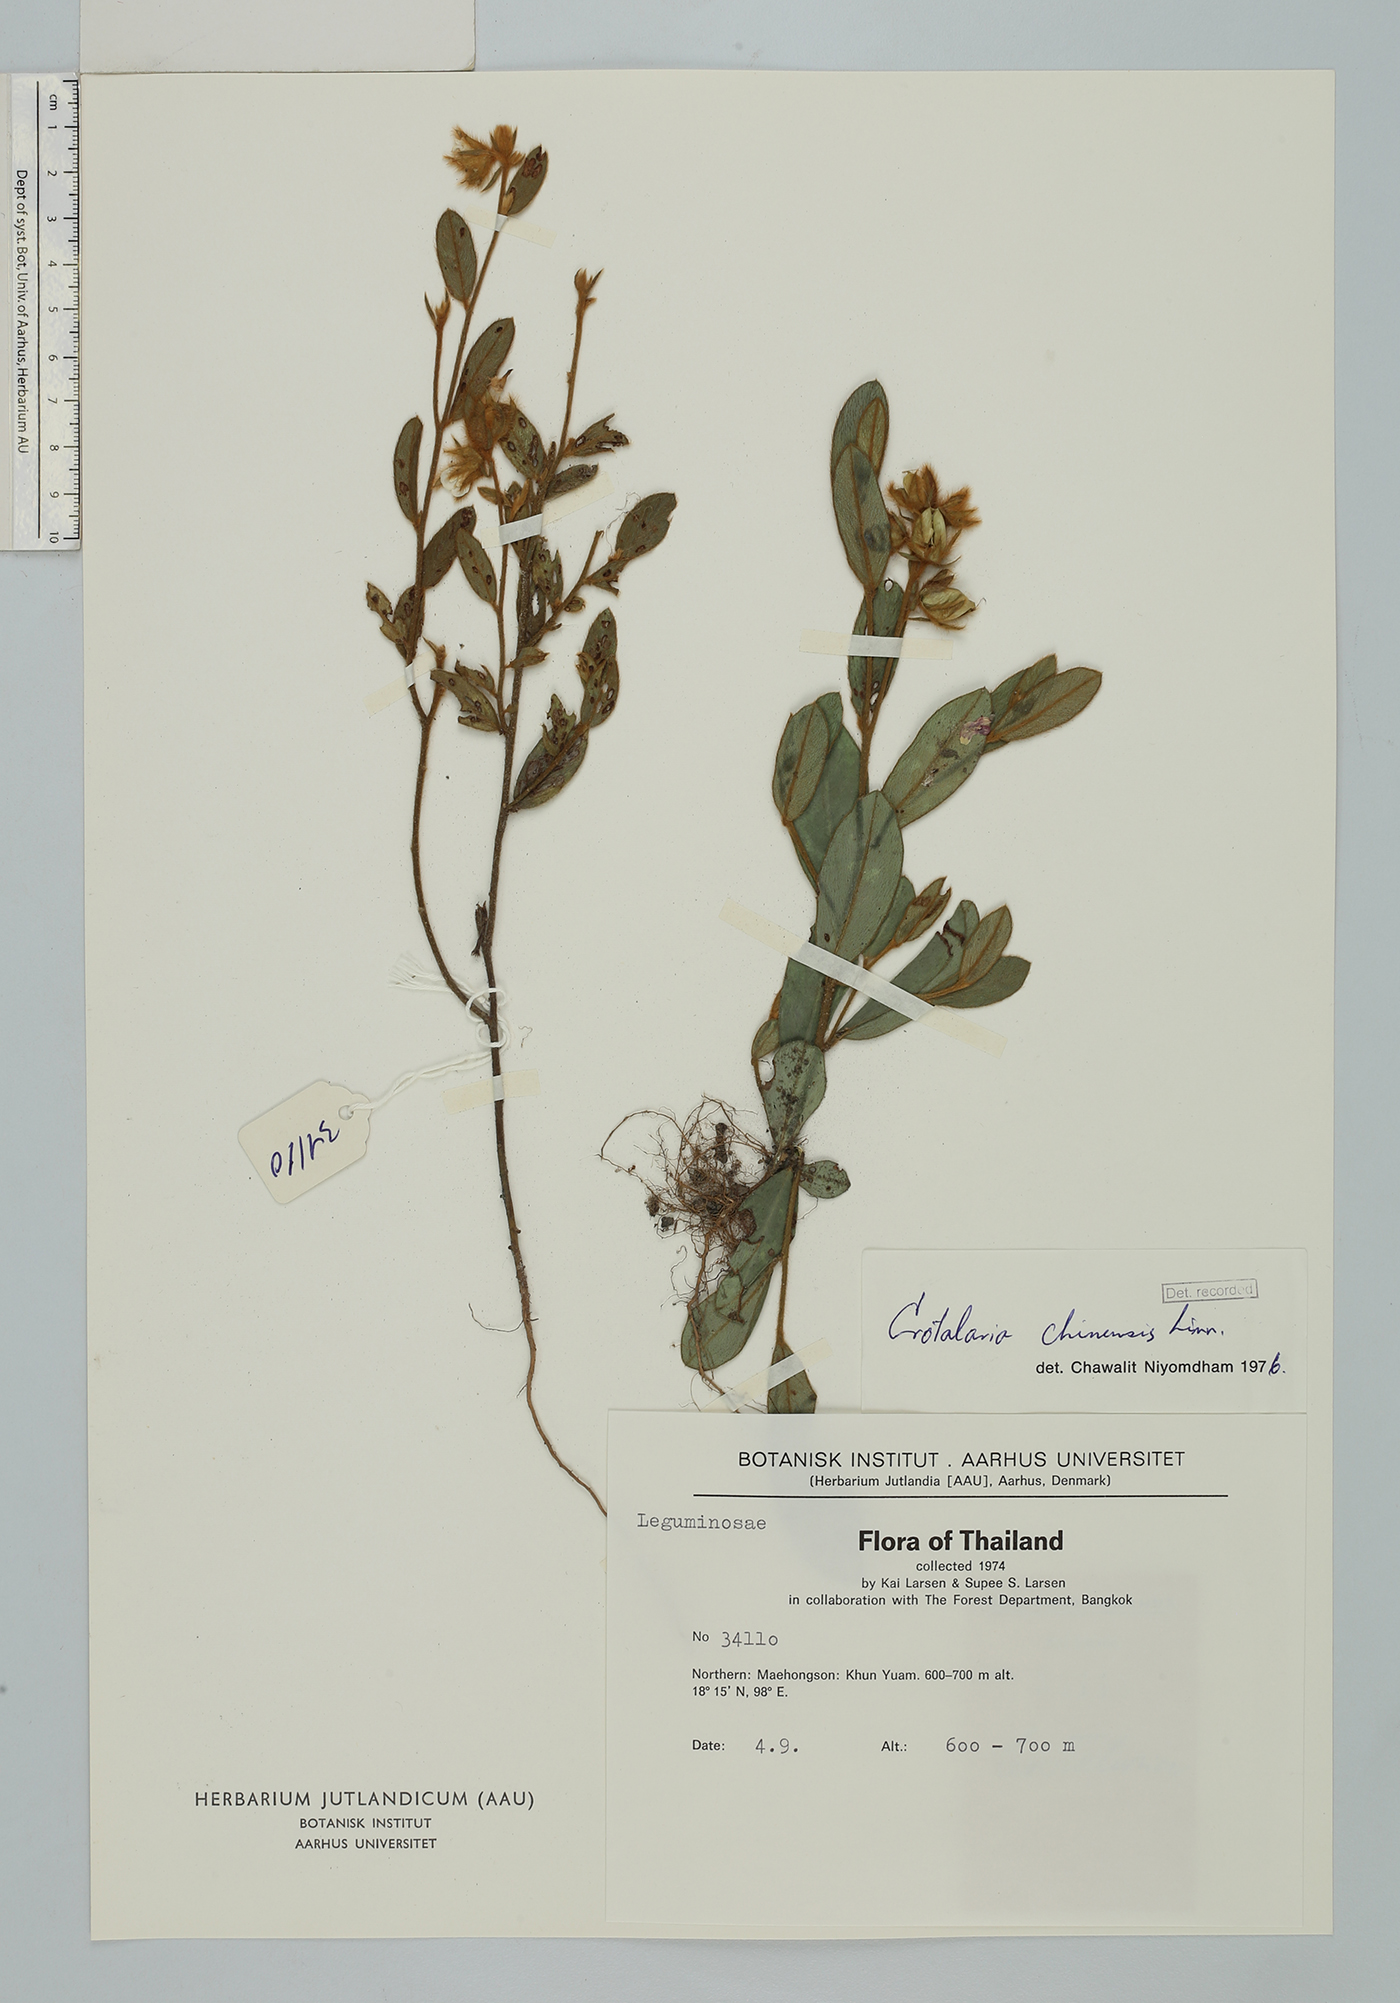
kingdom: Plantae
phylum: Tracheophyta
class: Magnoliopsida
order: Fabales
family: Fabaceae
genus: Crotalaria
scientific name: Crotalaria chinensis
